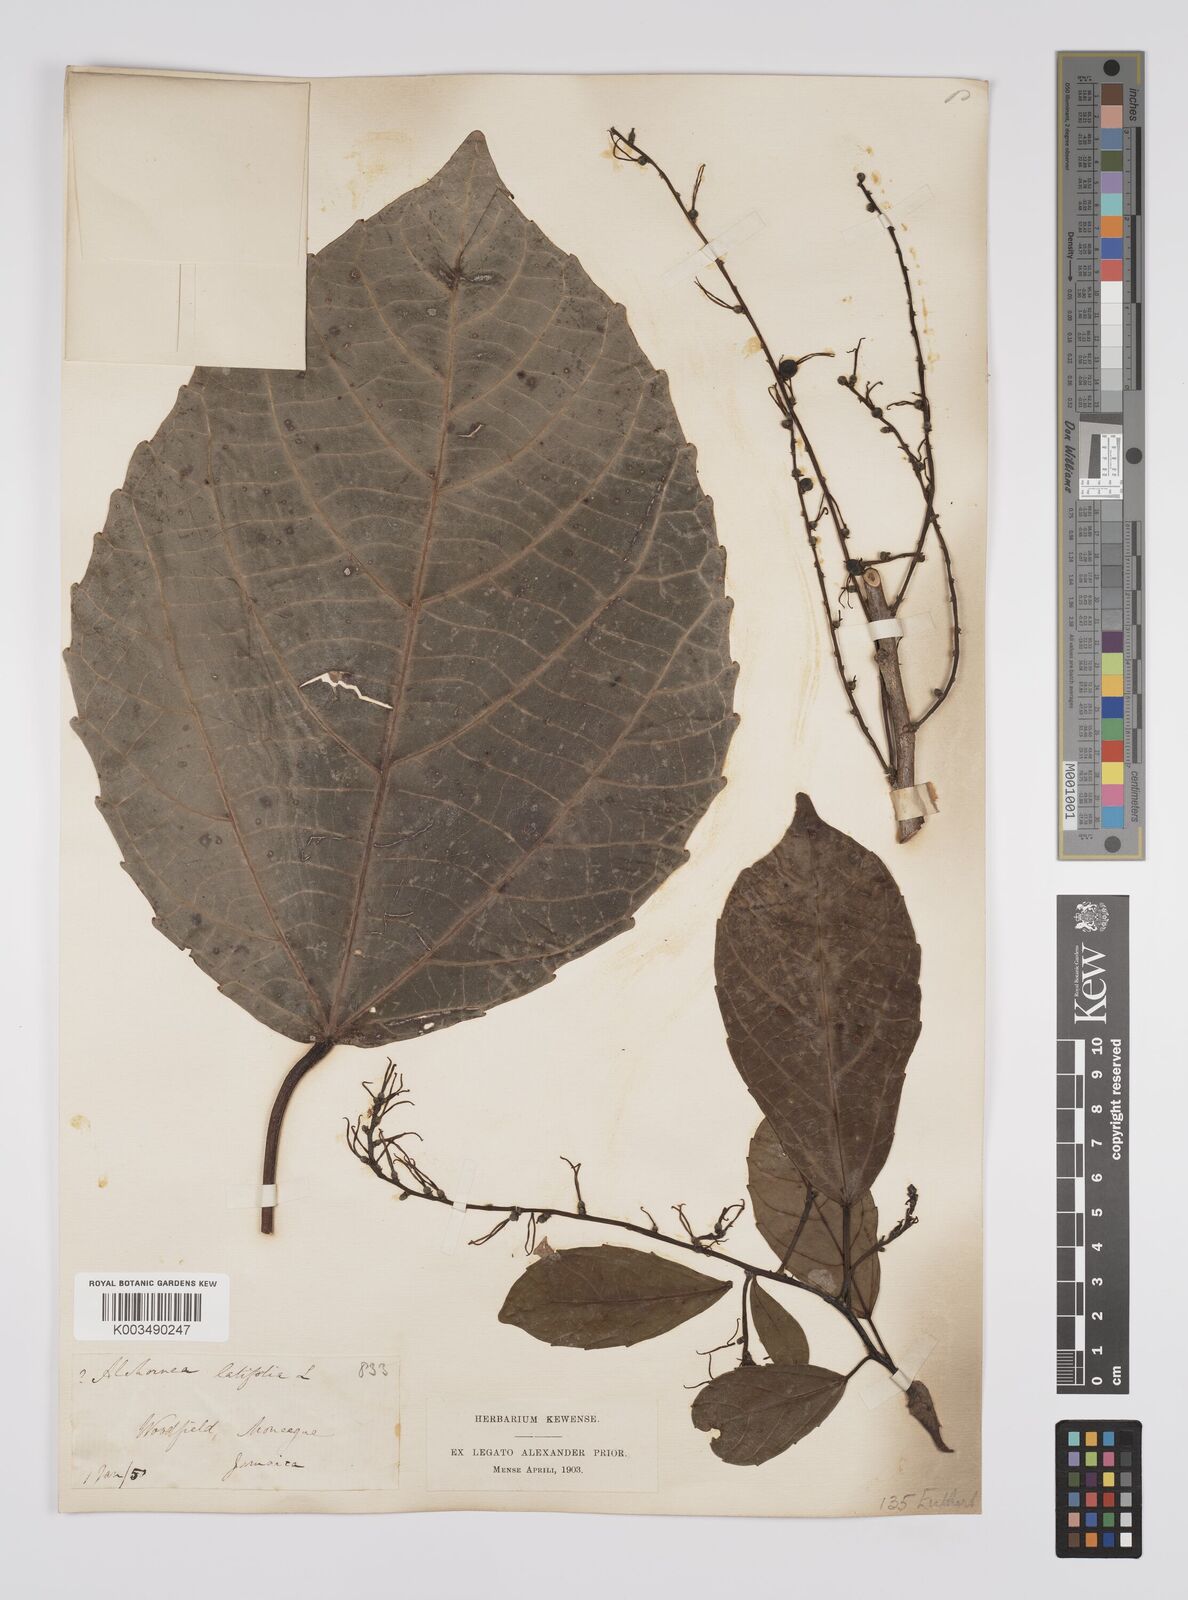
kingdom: Plantae
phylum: Tracheophyta
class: Magnoliopsida
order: Malpighiales
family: Euphorbiaceae
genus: Alchornea
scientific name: Alchornea latifolia
